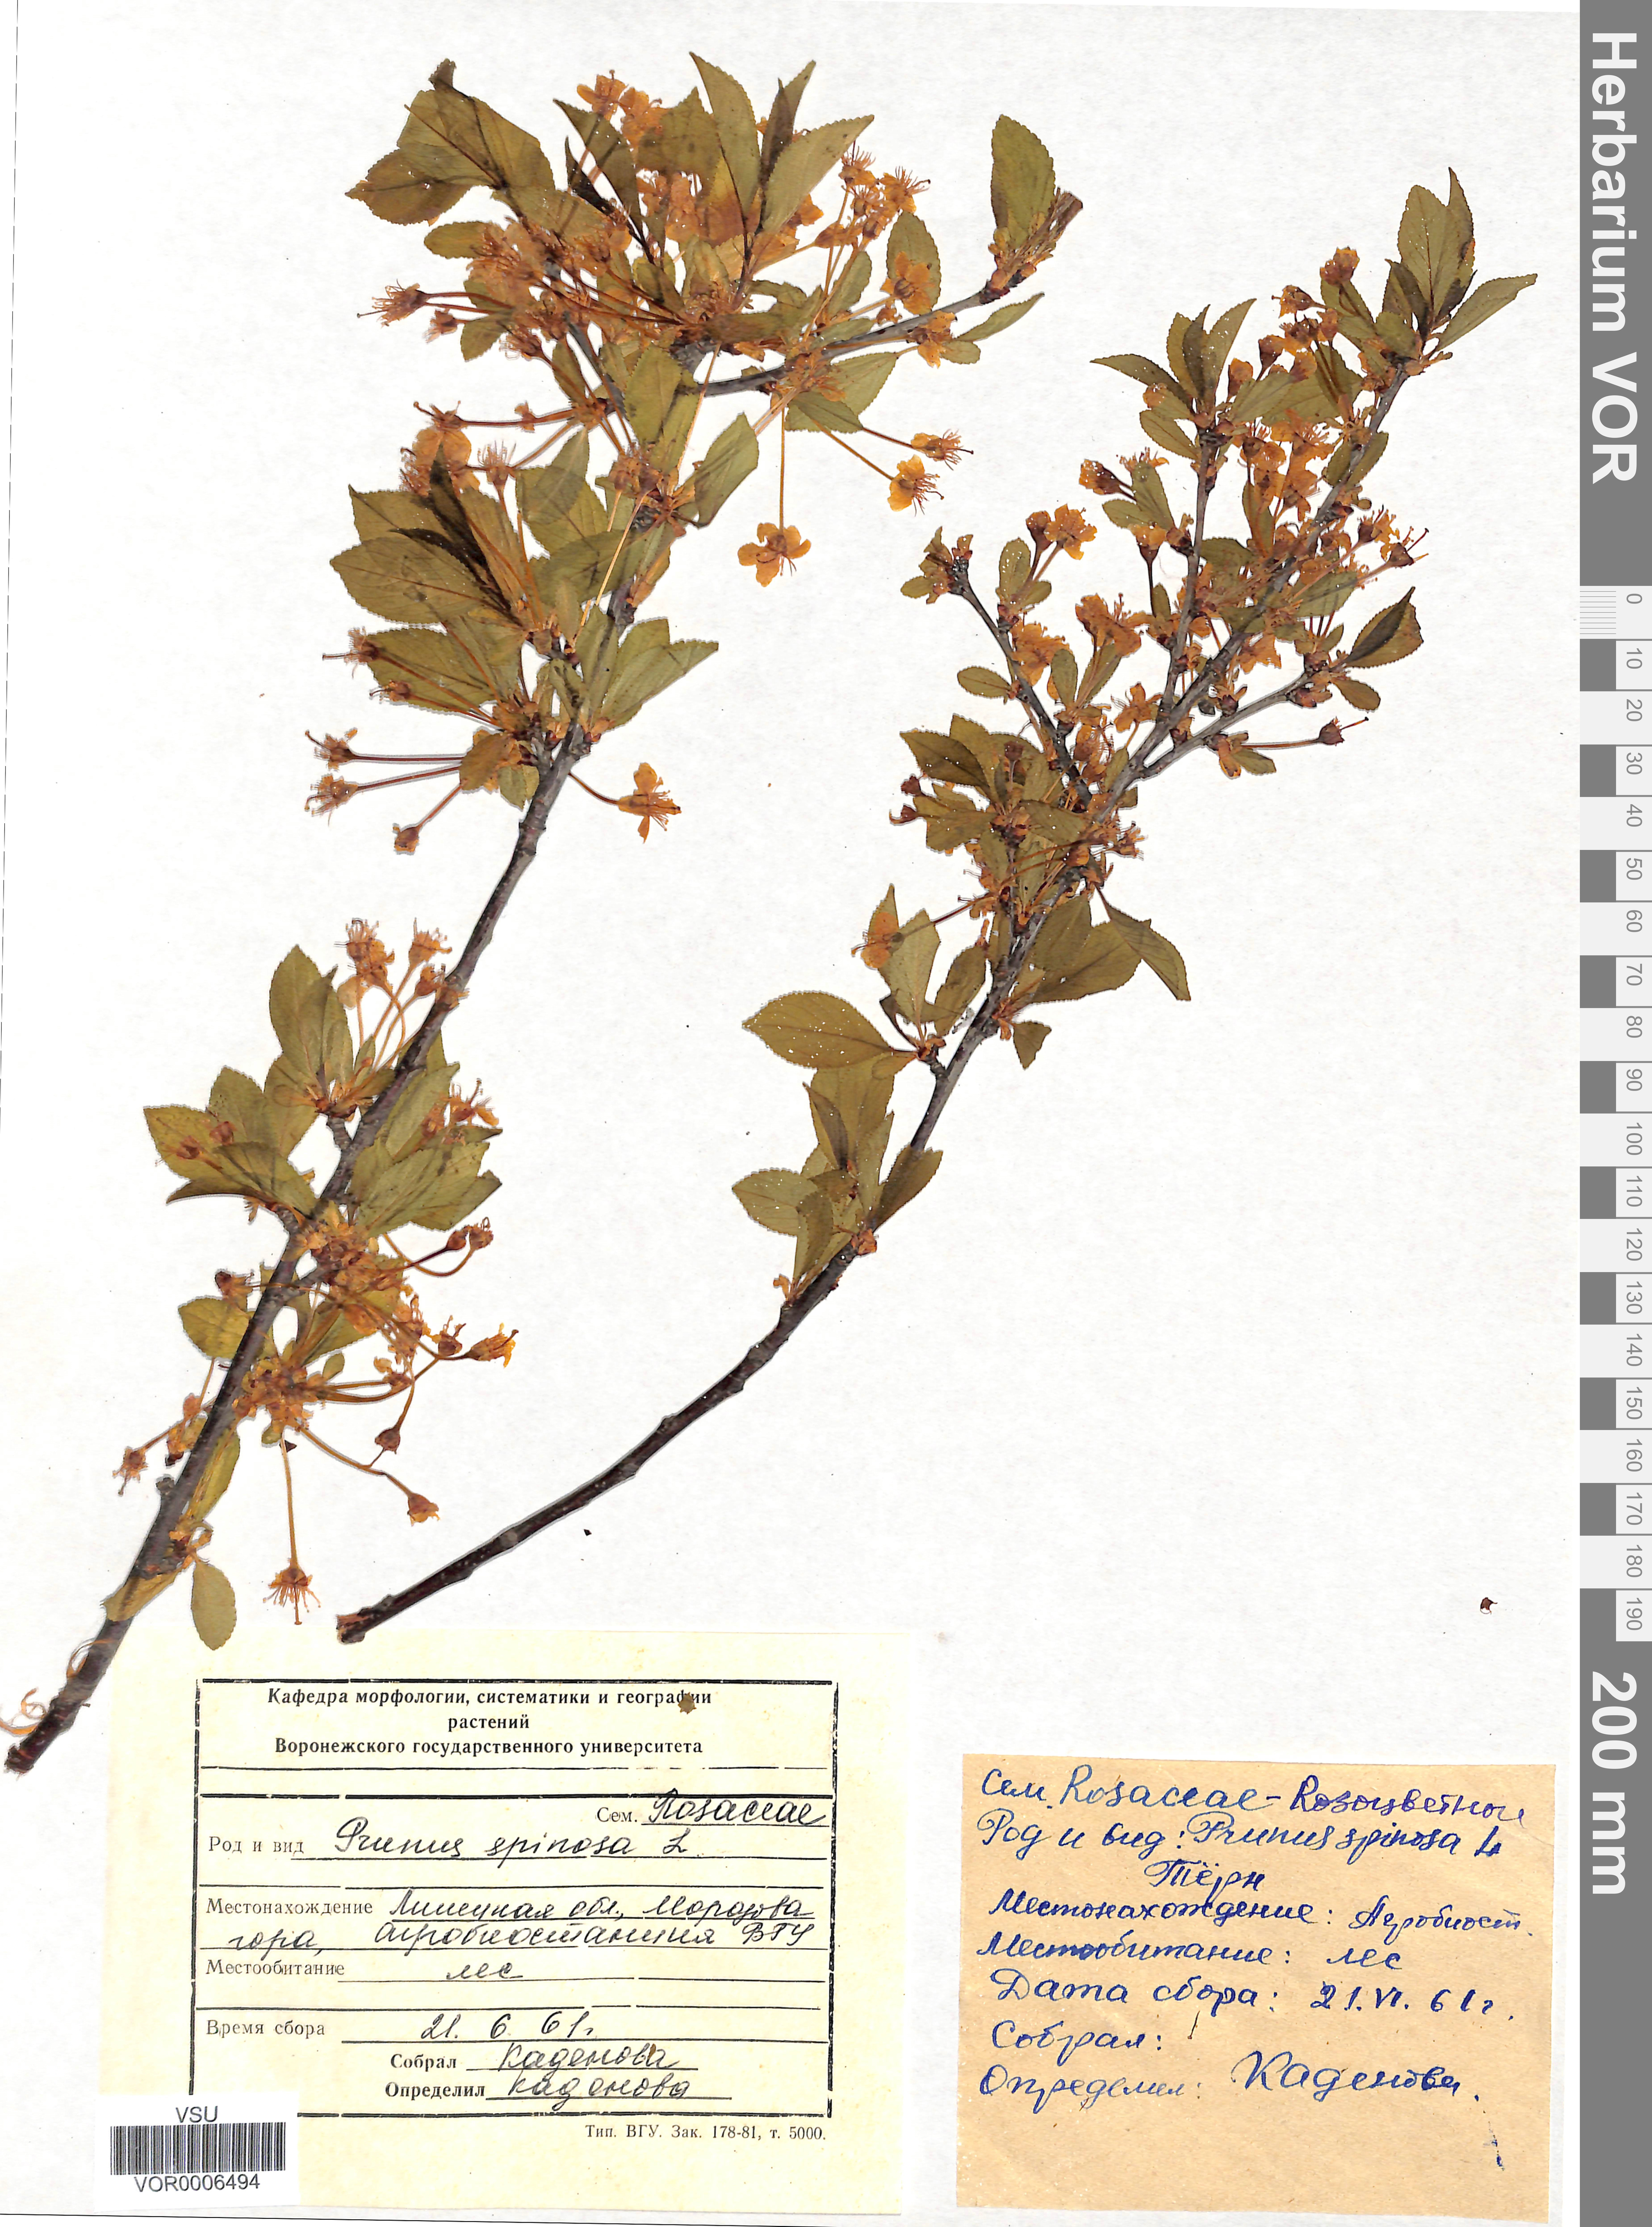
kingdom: Plantae
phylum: Tracheophyta
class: Magnoliopsida
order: Rosales
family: Rosaceae
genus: Prunus
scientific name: Prunus spinosa
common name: Blackthorn
